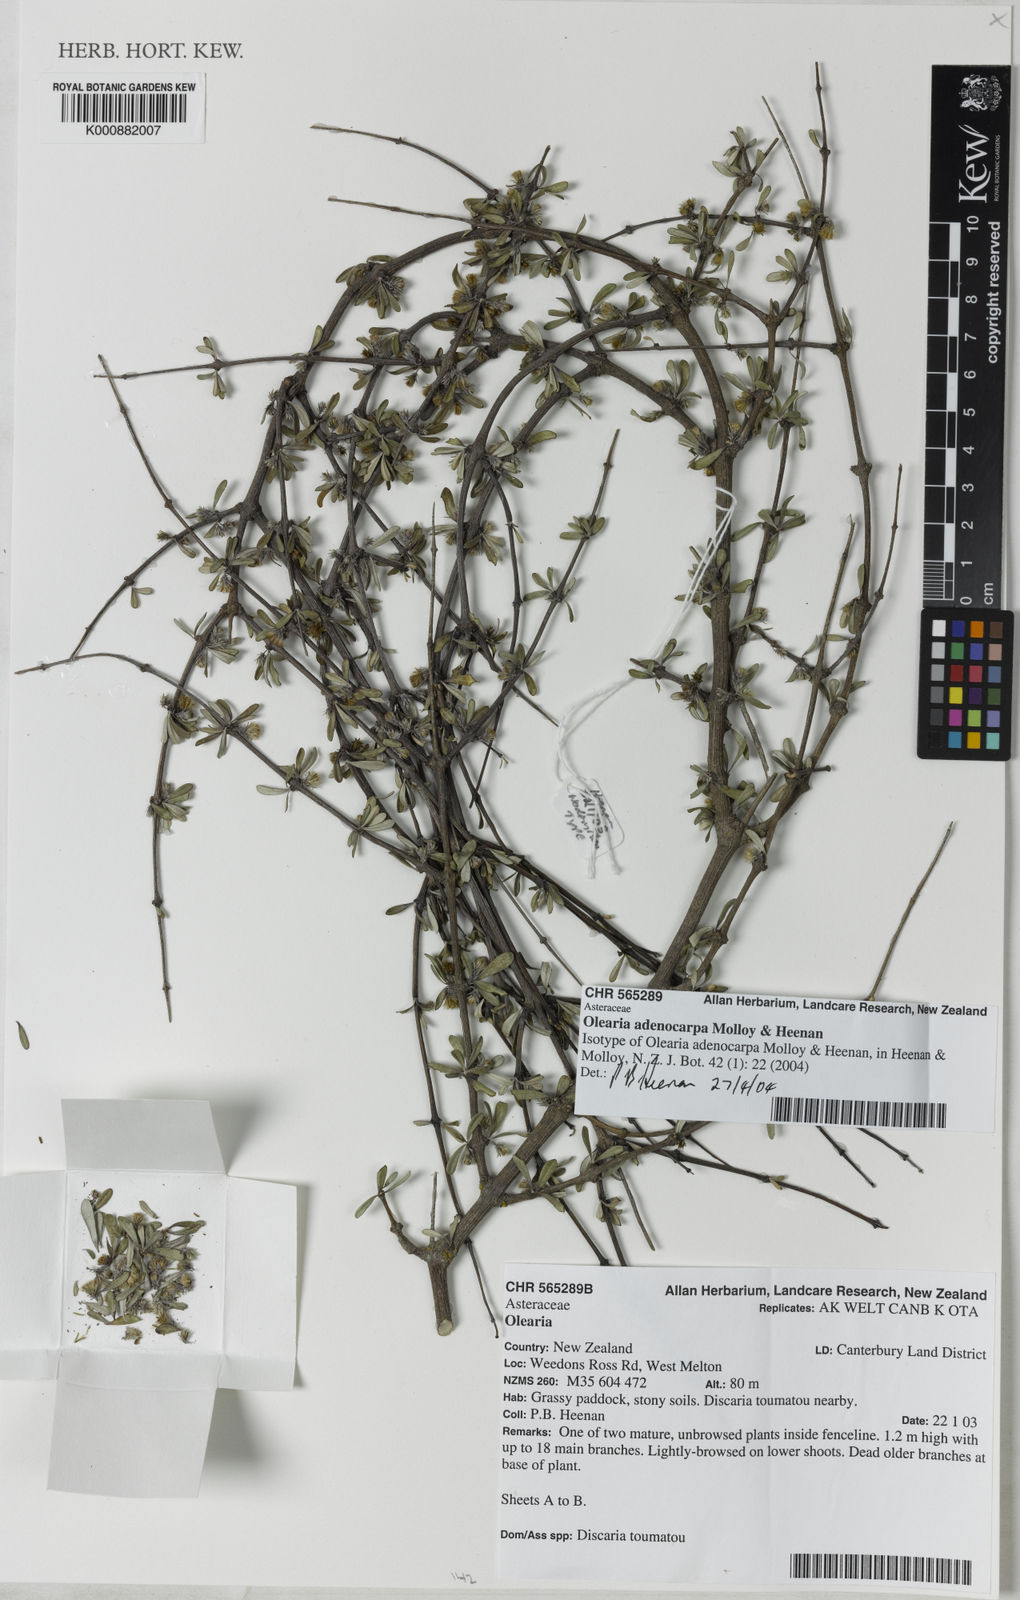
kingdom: Plantae
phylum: Tracheophyta
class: Magnoliopsida
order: Asterales
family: Asteraceae
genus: Olearia
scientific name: Olearia adenocarpa
